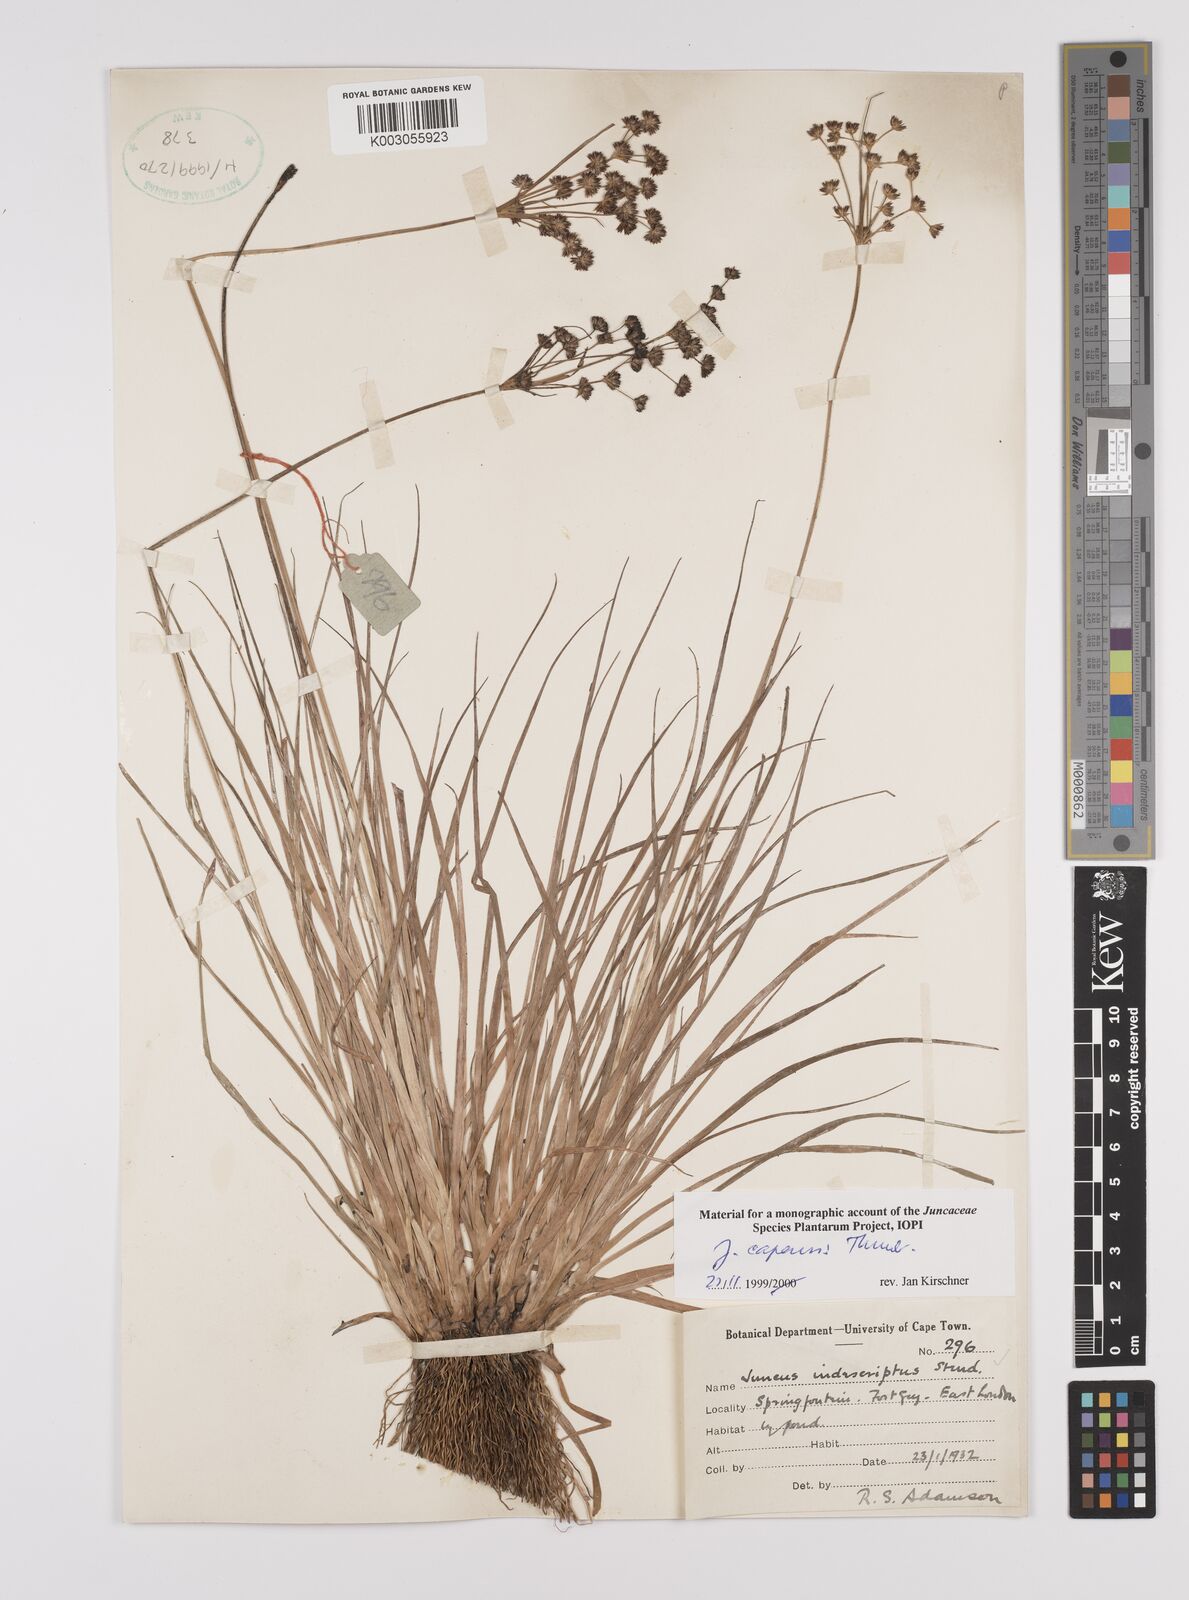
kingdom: Plantae
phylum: Tracheophyta
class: Liliopsida
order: Poales
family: Juncaceae
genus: Juncus
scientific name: Juncus capensis
